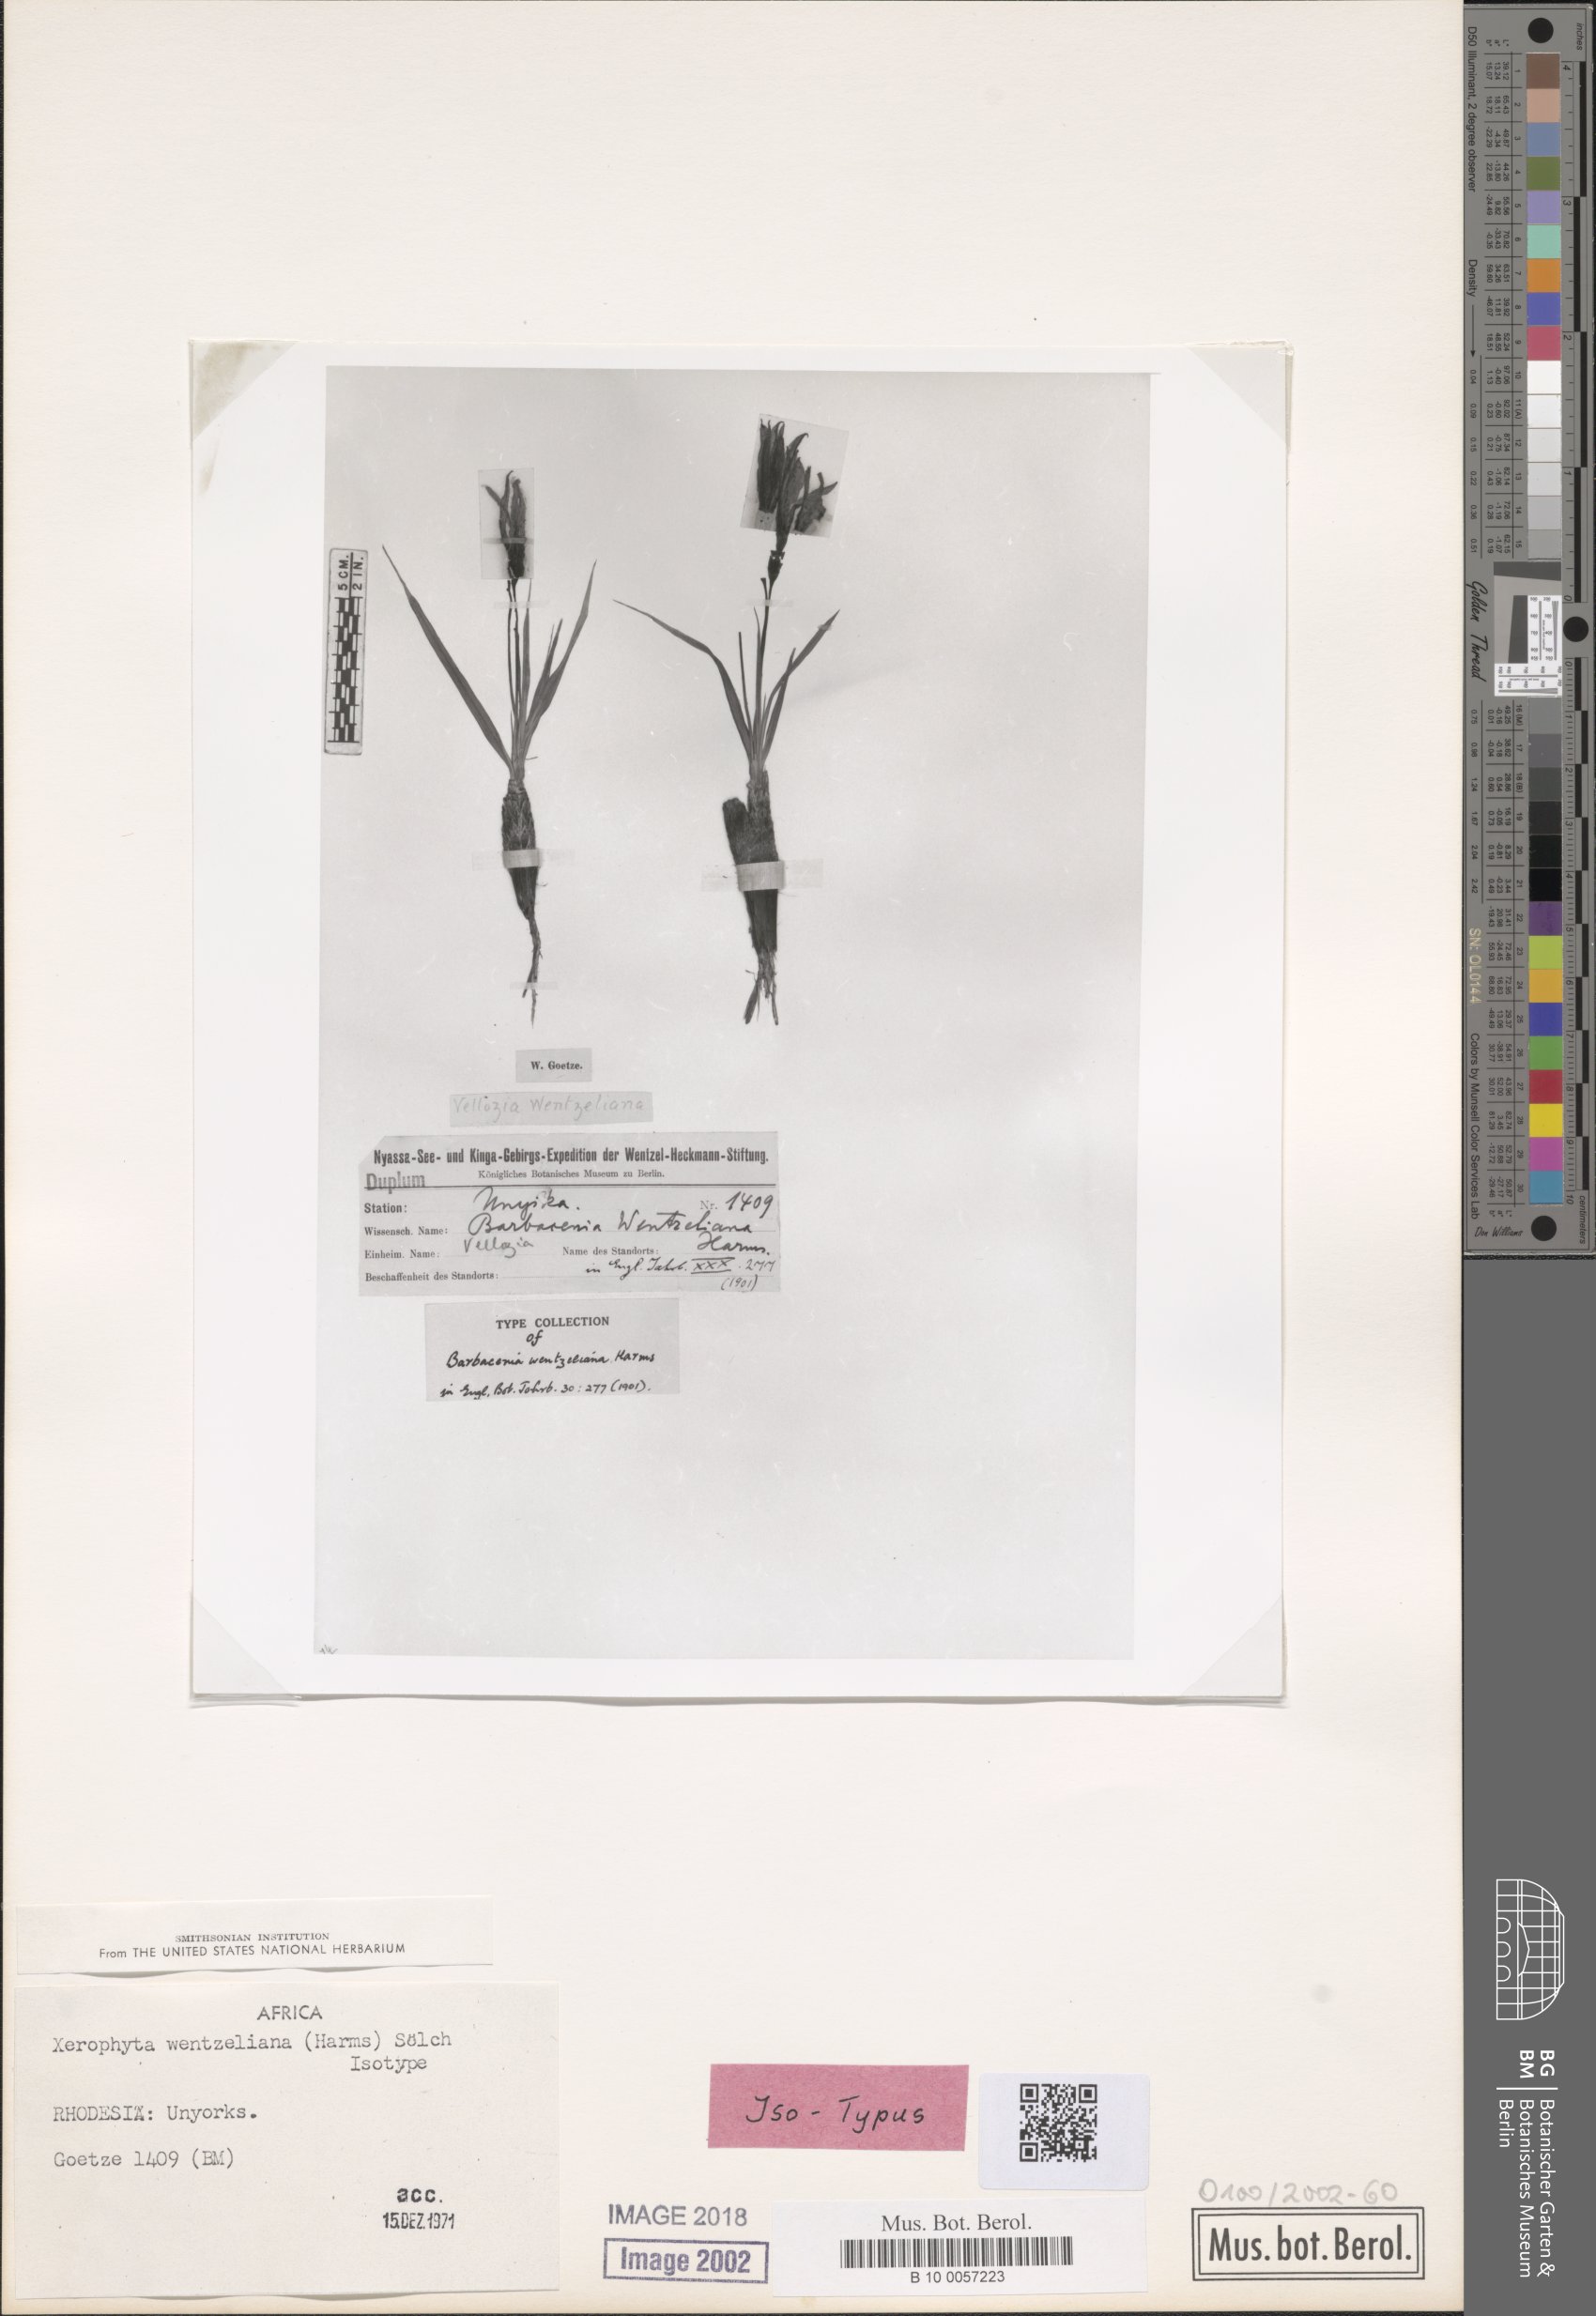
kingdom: Plantae
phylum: Tracheophyta
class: Liliopsida
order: Pandanales
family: Velloziaceae
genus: Xerophyta
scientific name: Xerophyta pauciramosa
